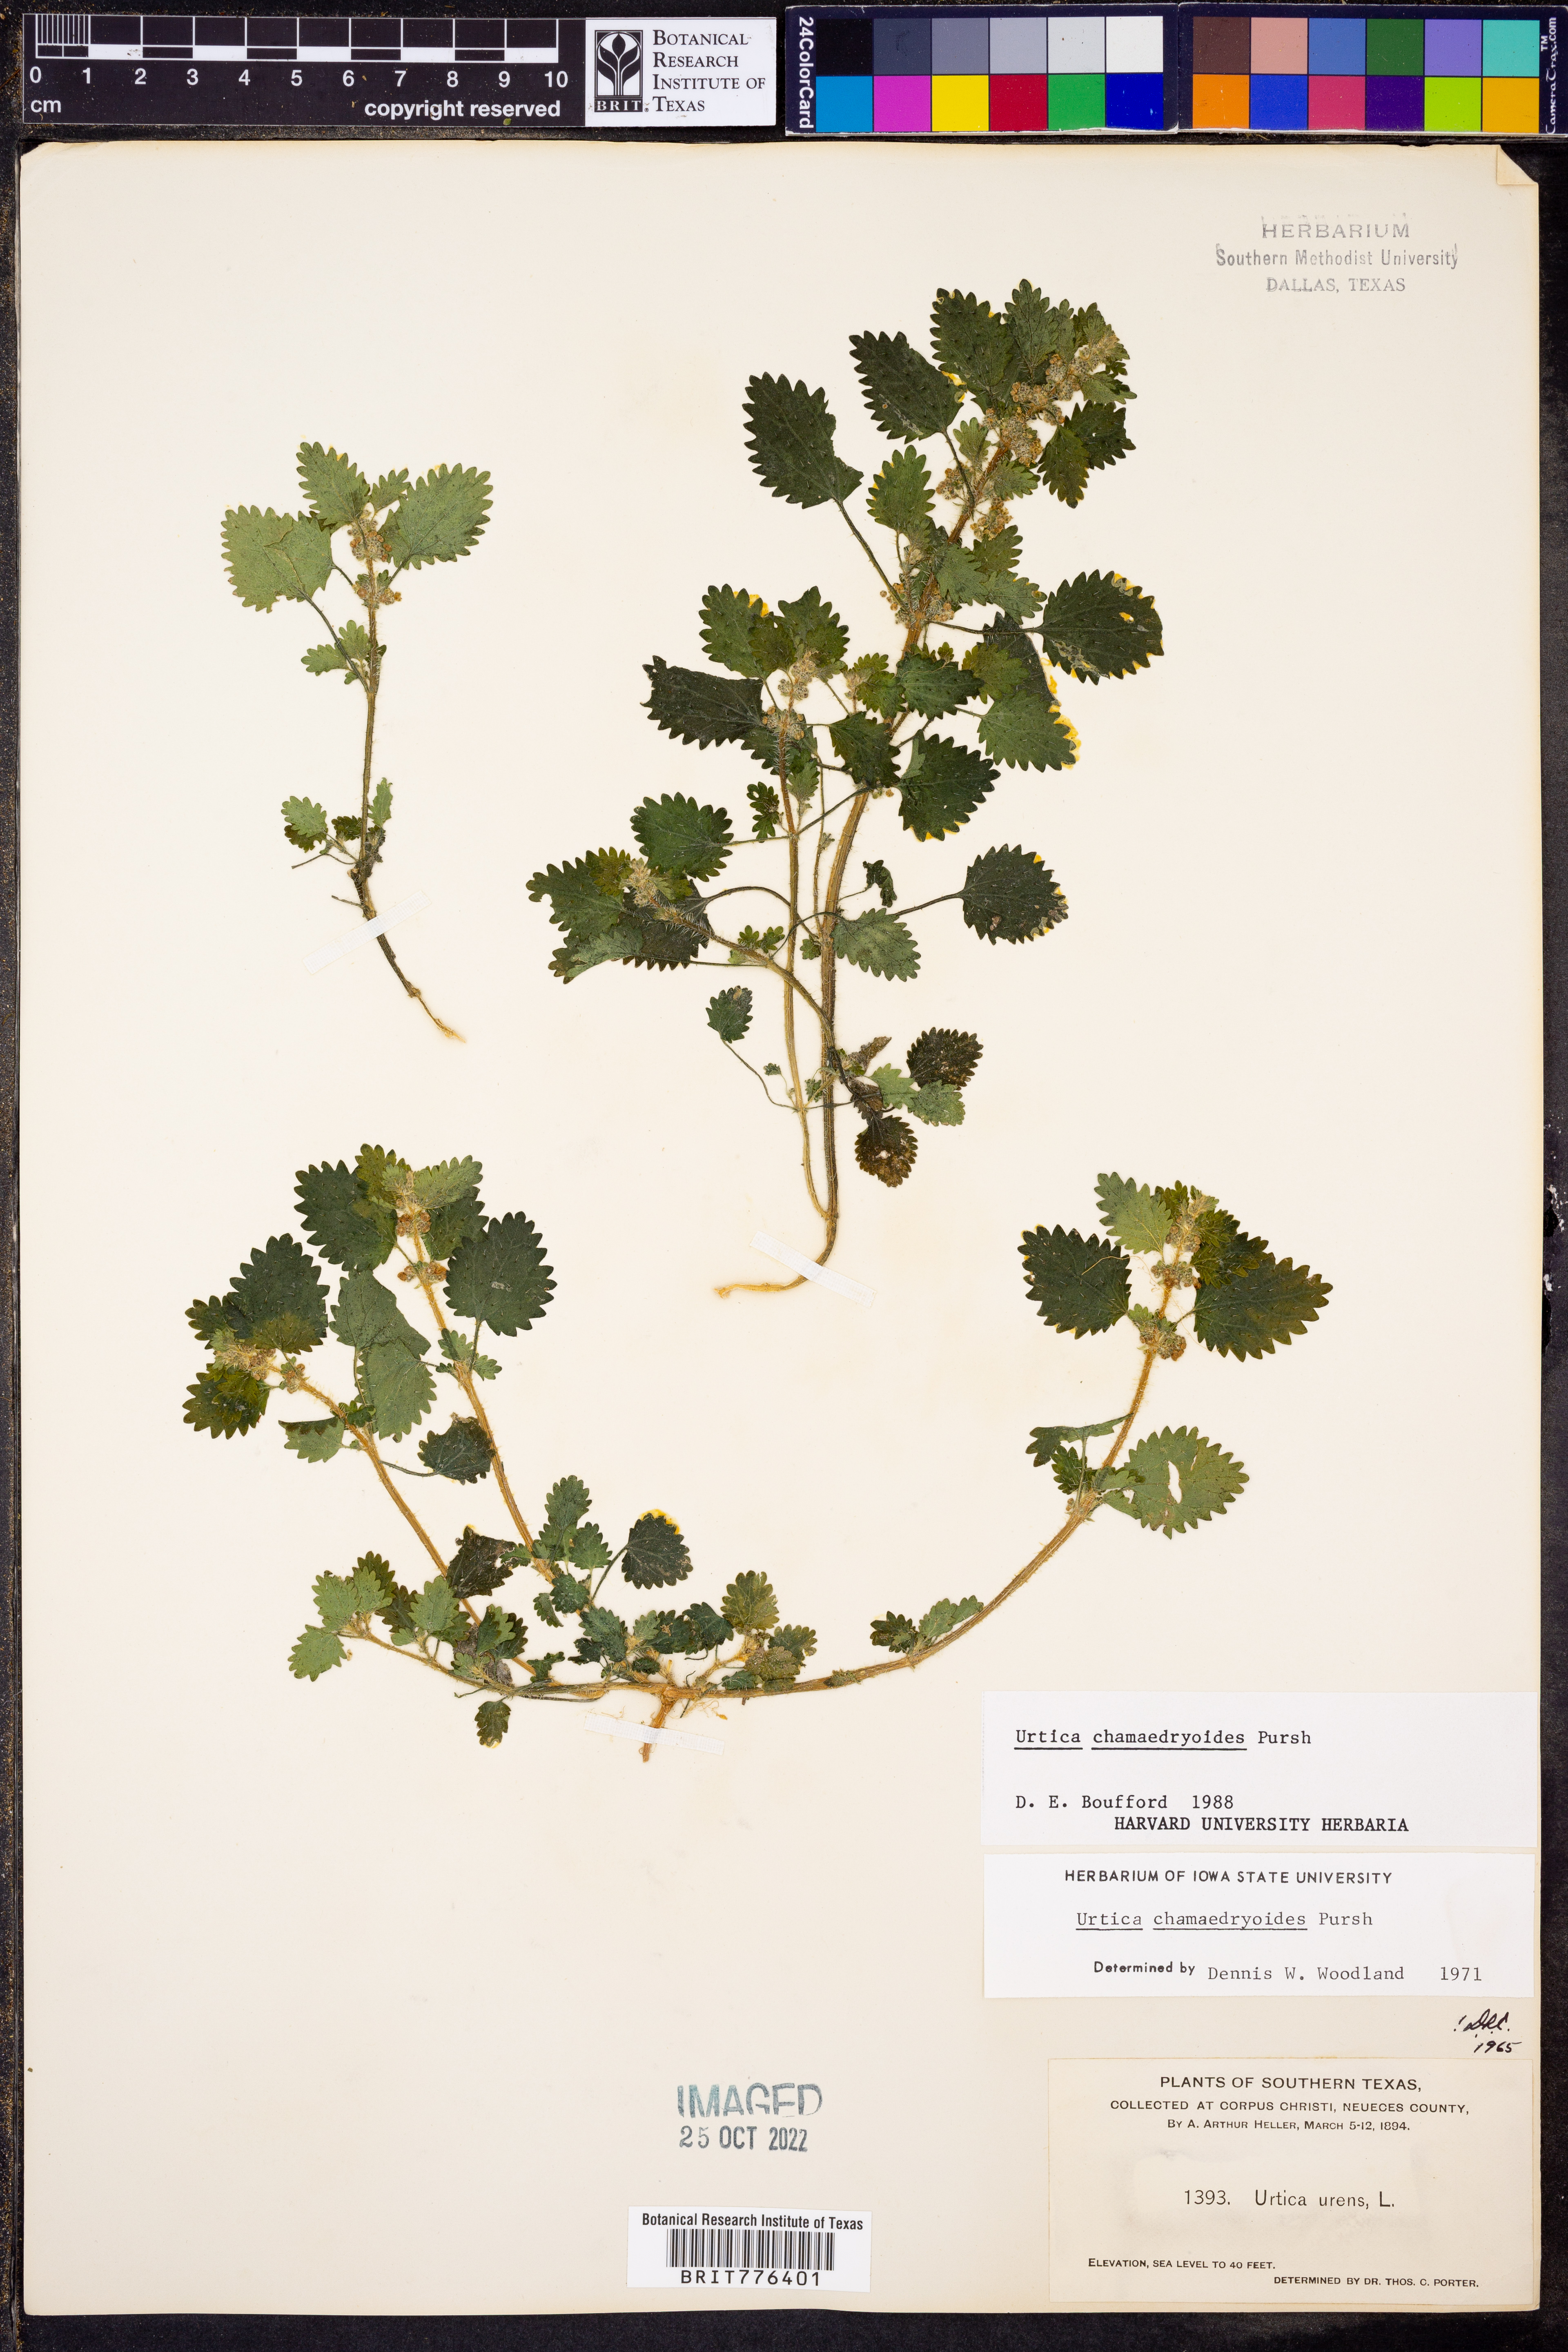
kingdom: Plantae
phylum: Tracheophyta
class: Magnoliopsida
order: Rosales
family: Urticaceae
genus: Urtica
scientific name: Urtica chamaedryoides
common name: Heart-leaf nettle
